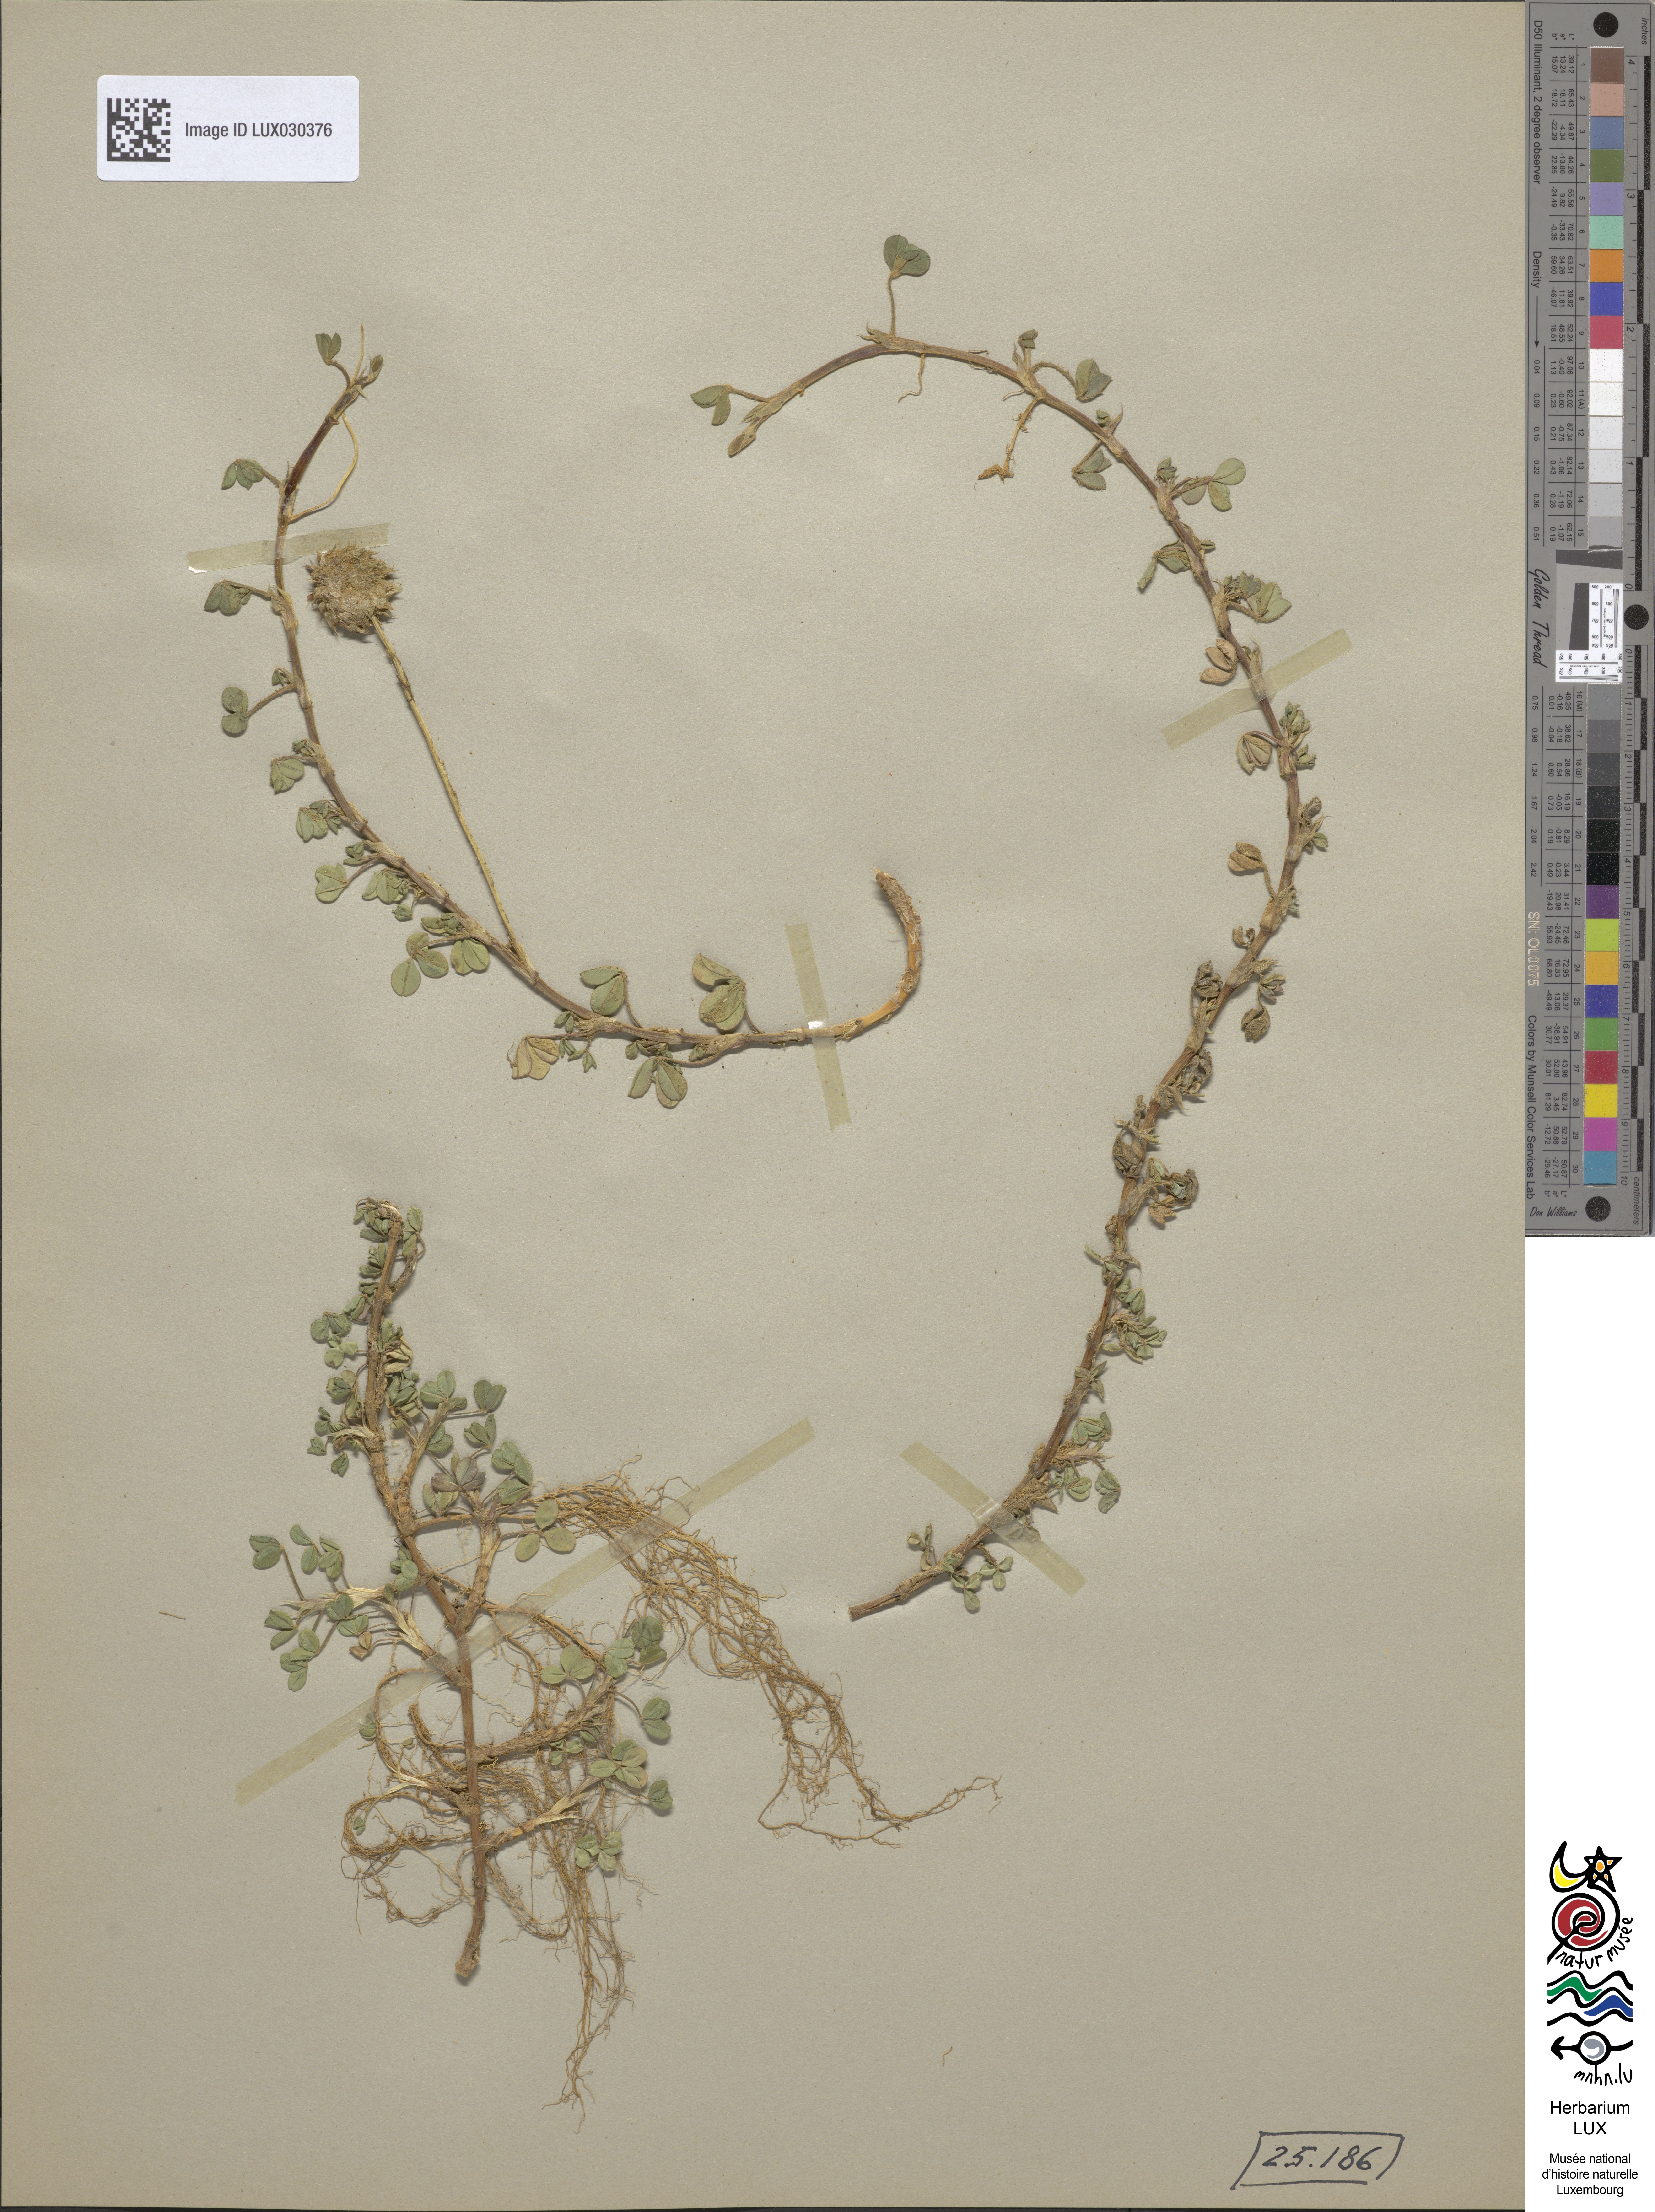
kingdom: Plantae
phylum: Tracheophyta
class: Magnoliopsida
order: Fabales
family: Fabaceae
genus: Trifolium
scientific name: Trifolium fragiferum
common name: Strawberry clover
